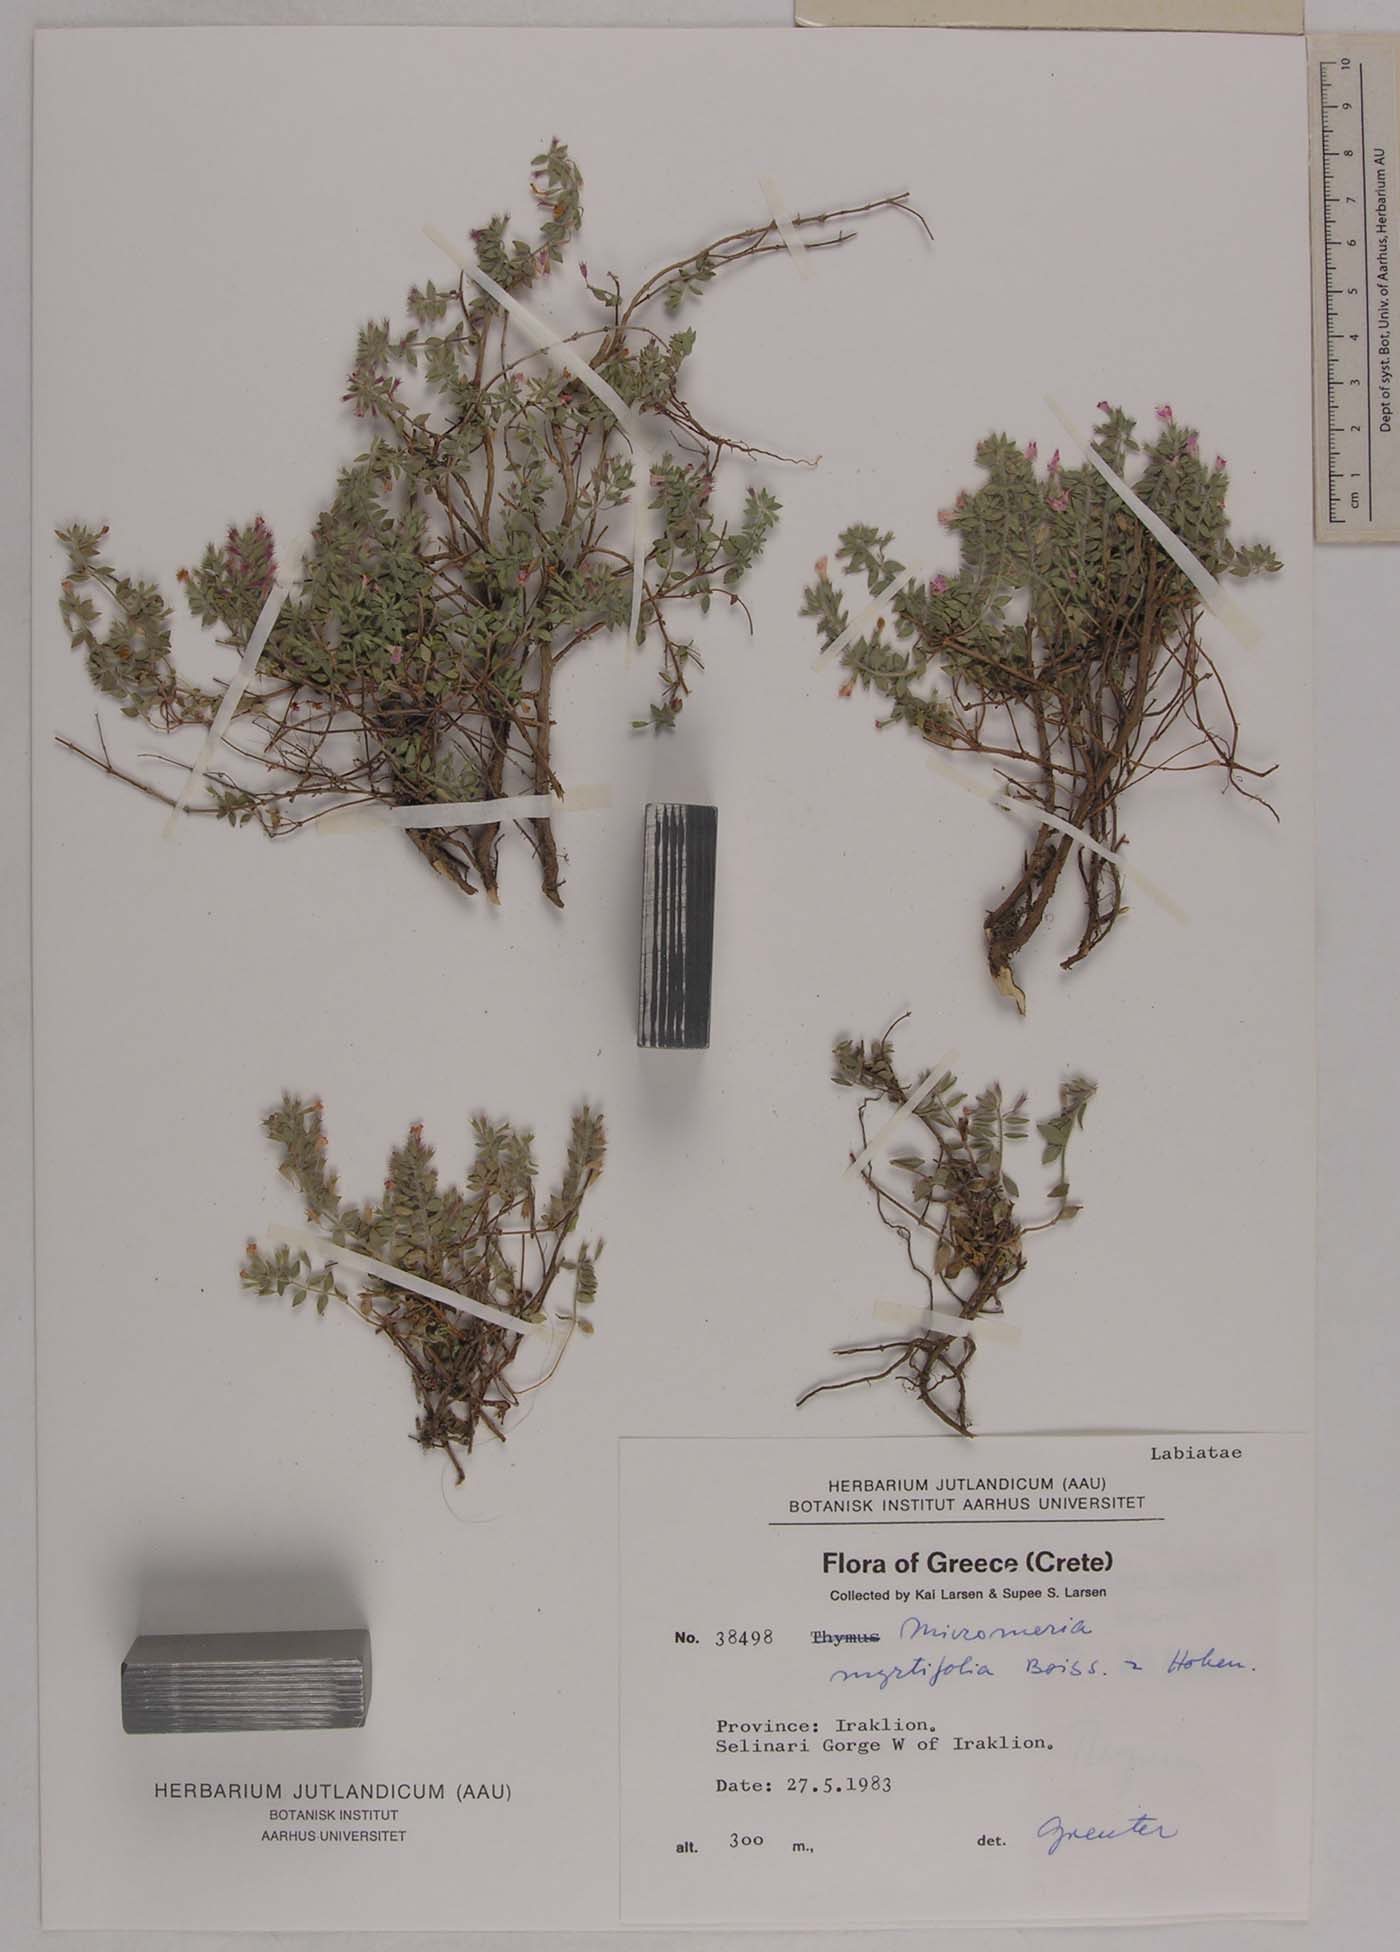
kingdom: Plantae
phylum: Tracheophyta
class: Magnoliopsida
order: Lamiales
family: Lamiaceae
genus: Micromeria
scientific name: Micromeria hispida
